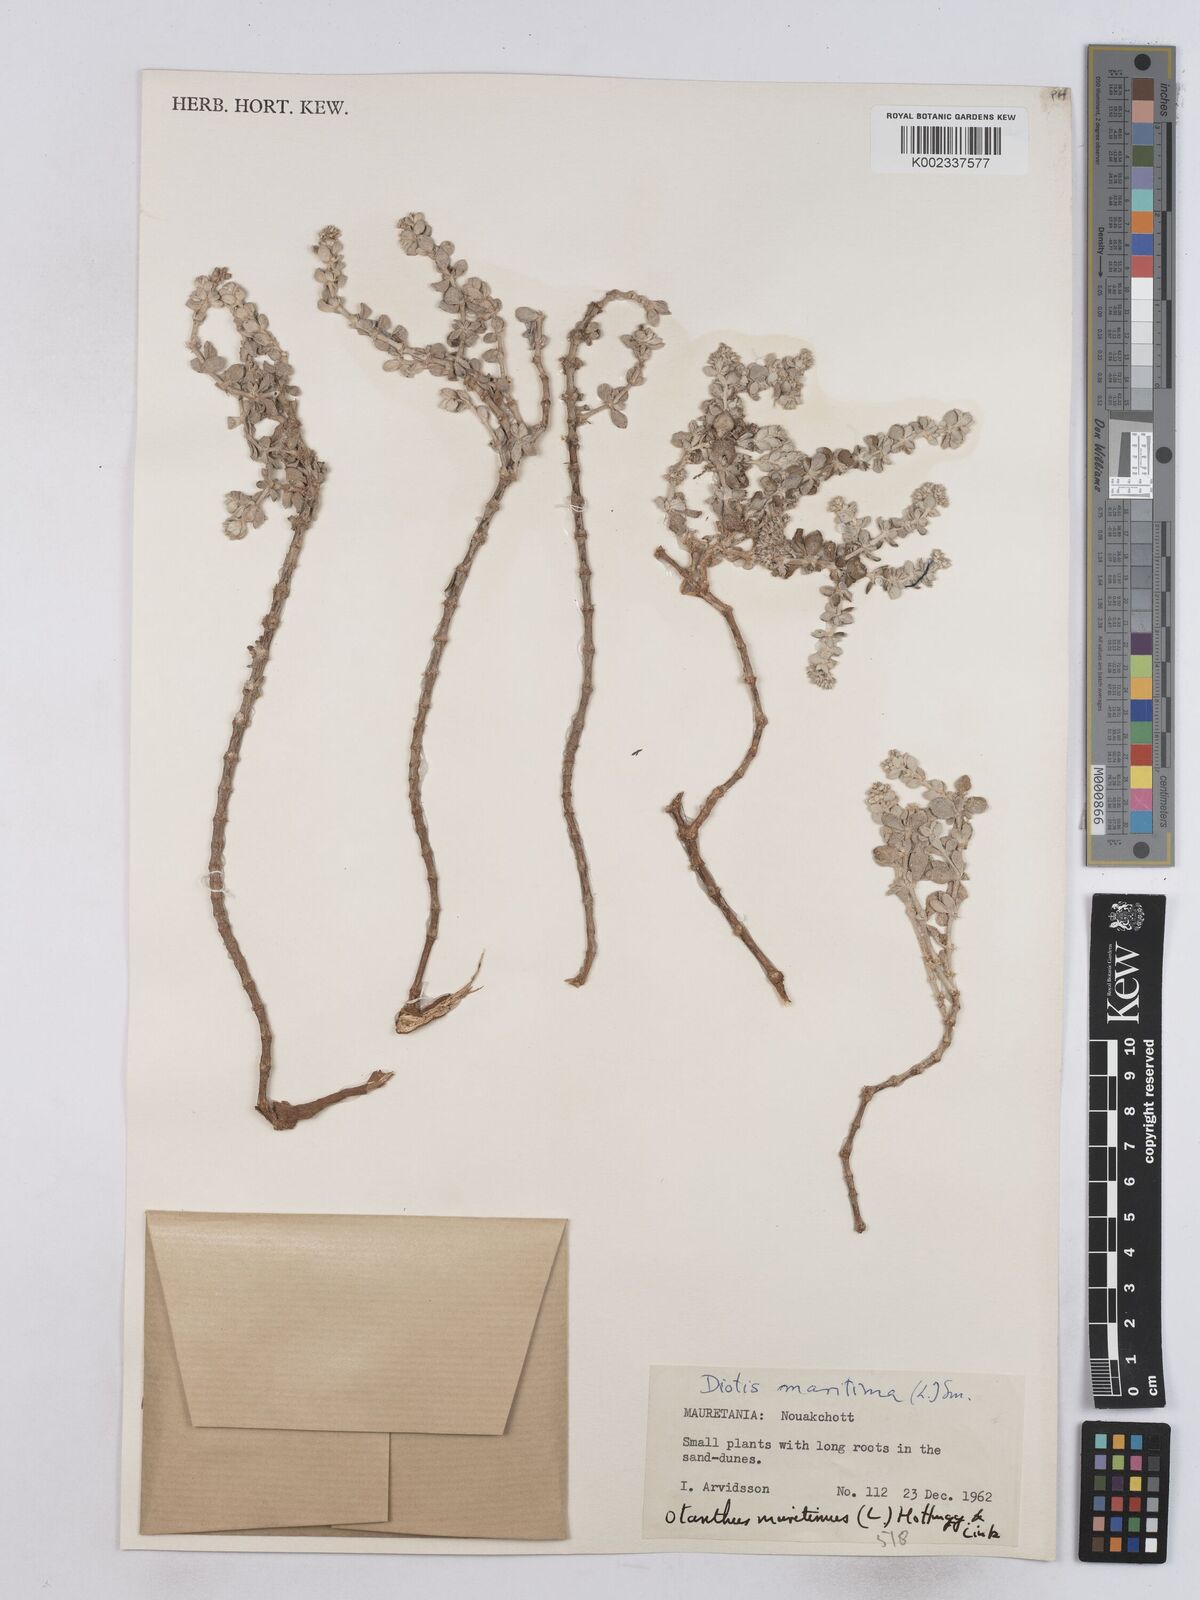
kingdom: Plantae
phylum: Tracheophyta
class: Magnoliopsida
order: Asterales
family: Asteraceae
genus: Achillea
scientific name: Achillea maritima
